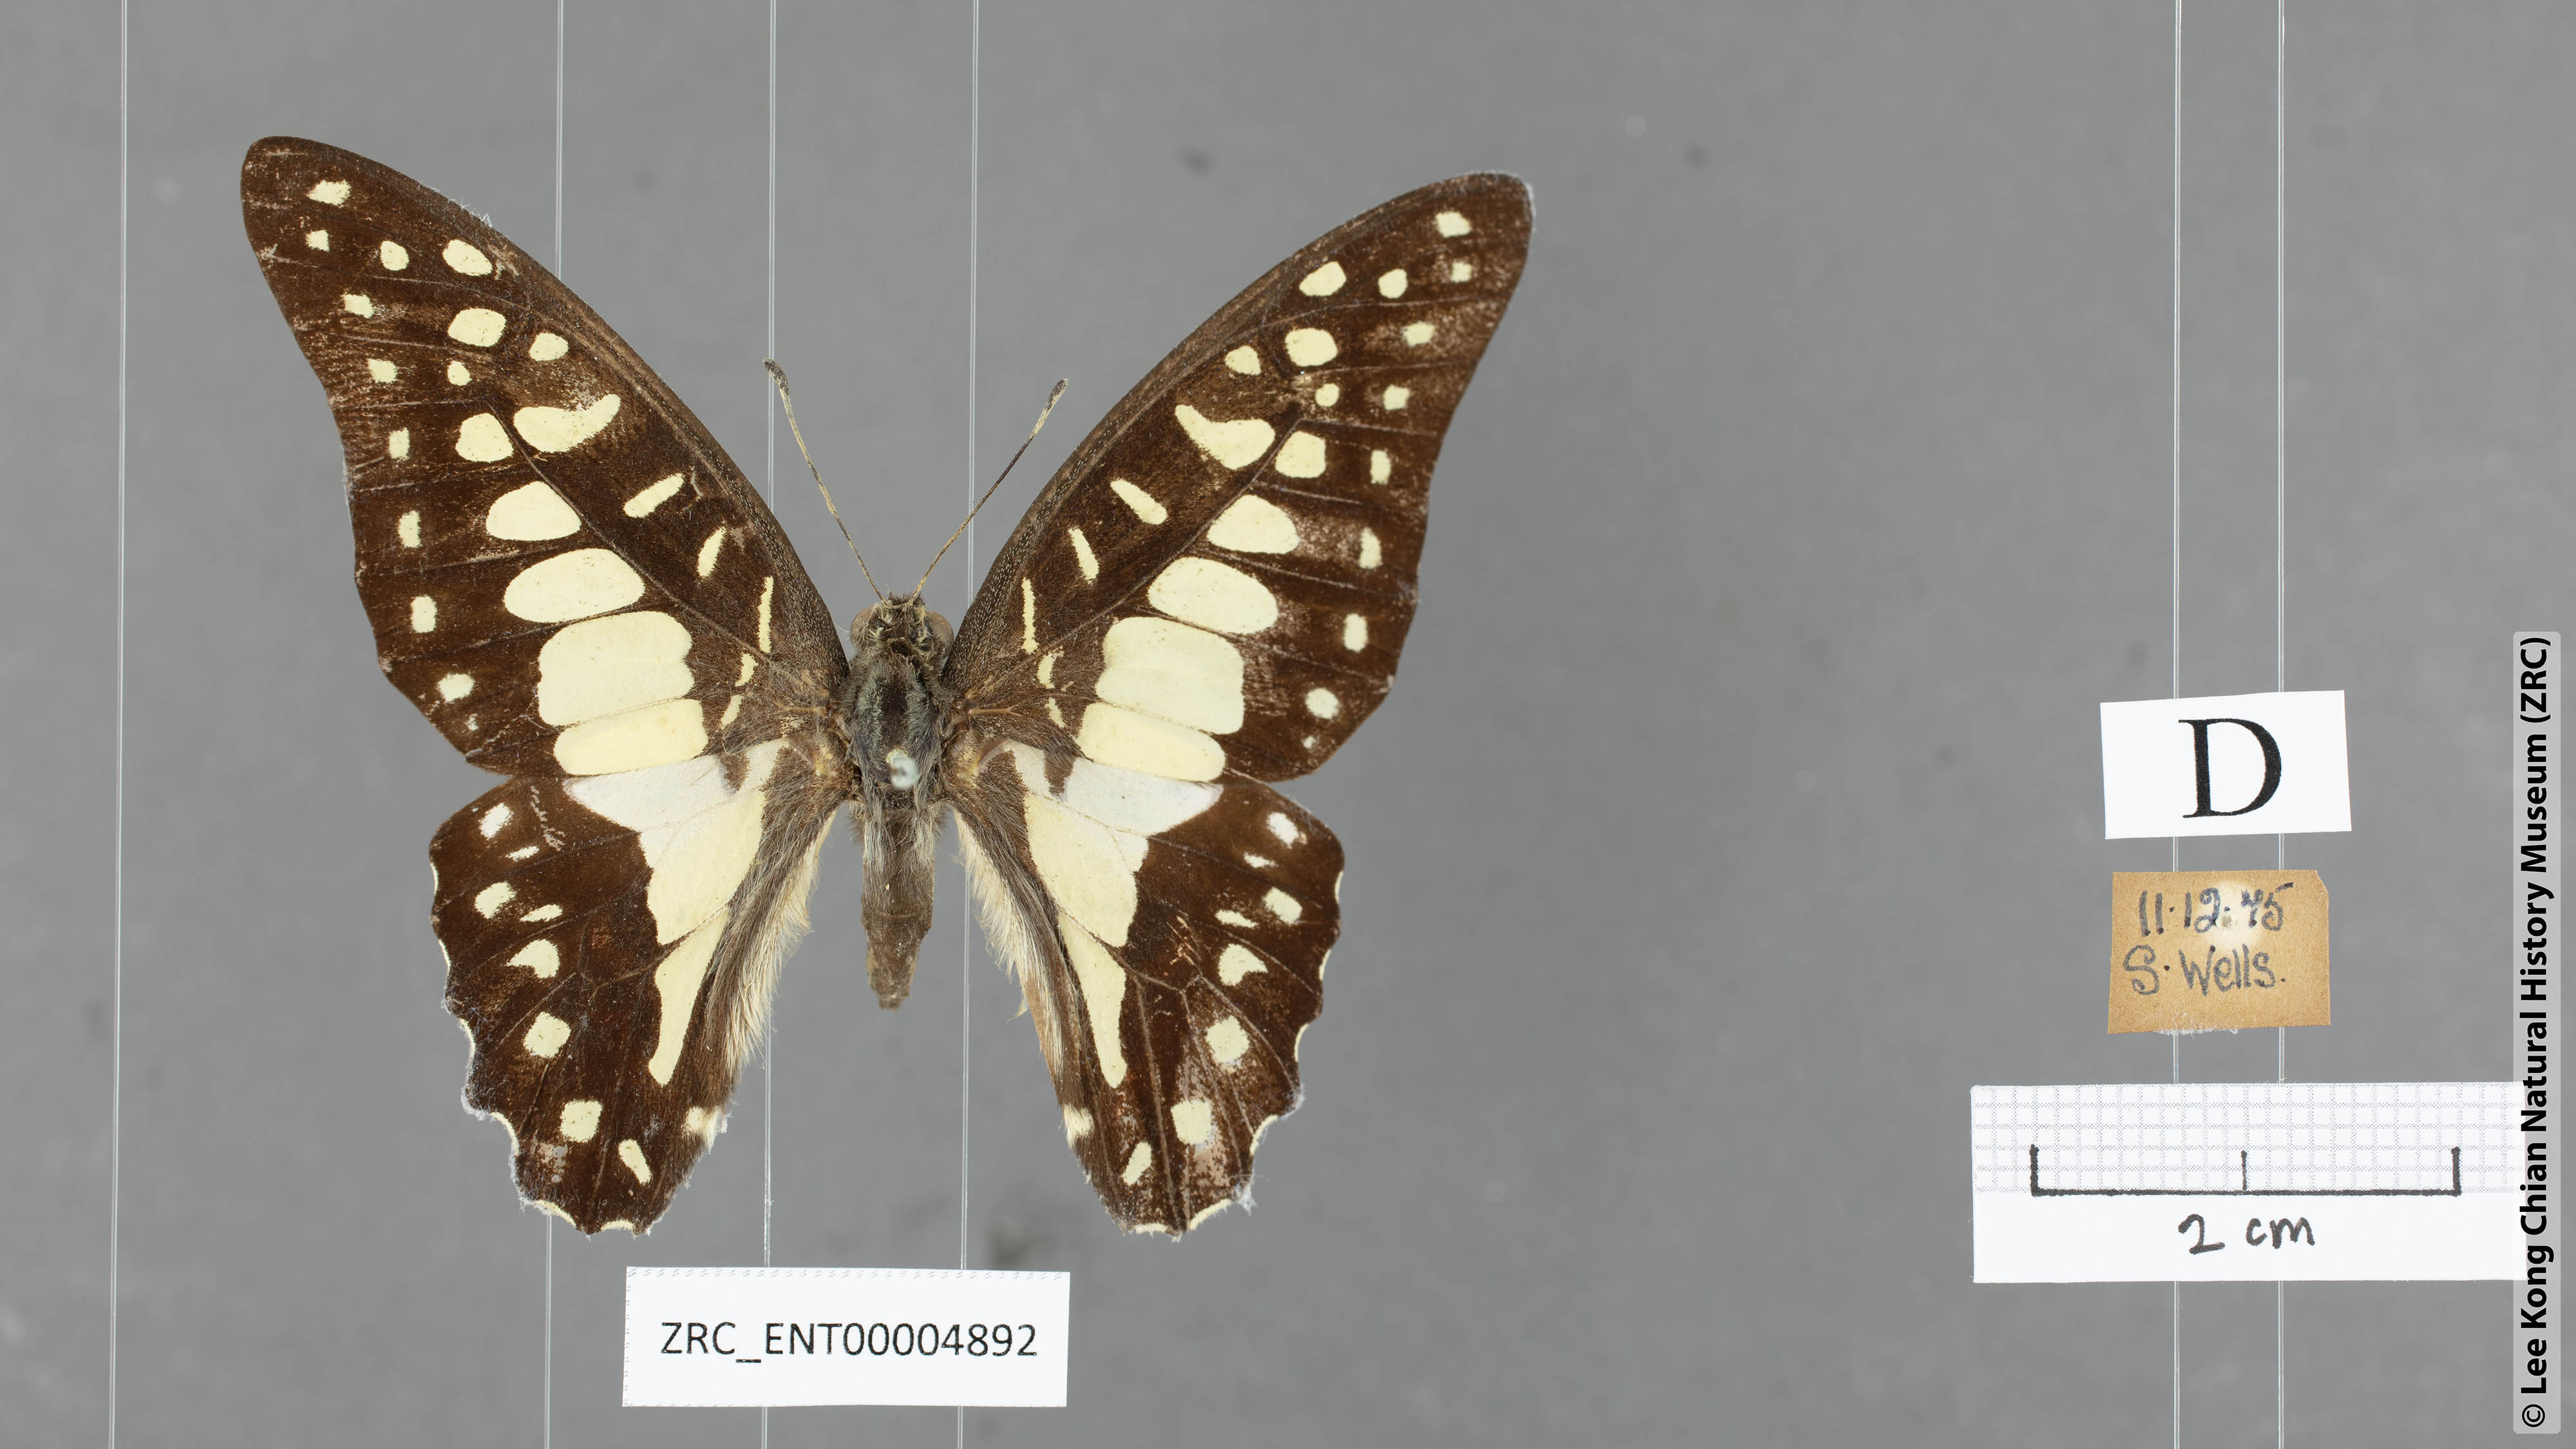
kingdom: Animalia
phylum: Arthropoda
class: Insecta
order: Lepidoptera
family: Papilionidae
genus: Graphium
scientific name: Graphium doson
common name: Common jay
